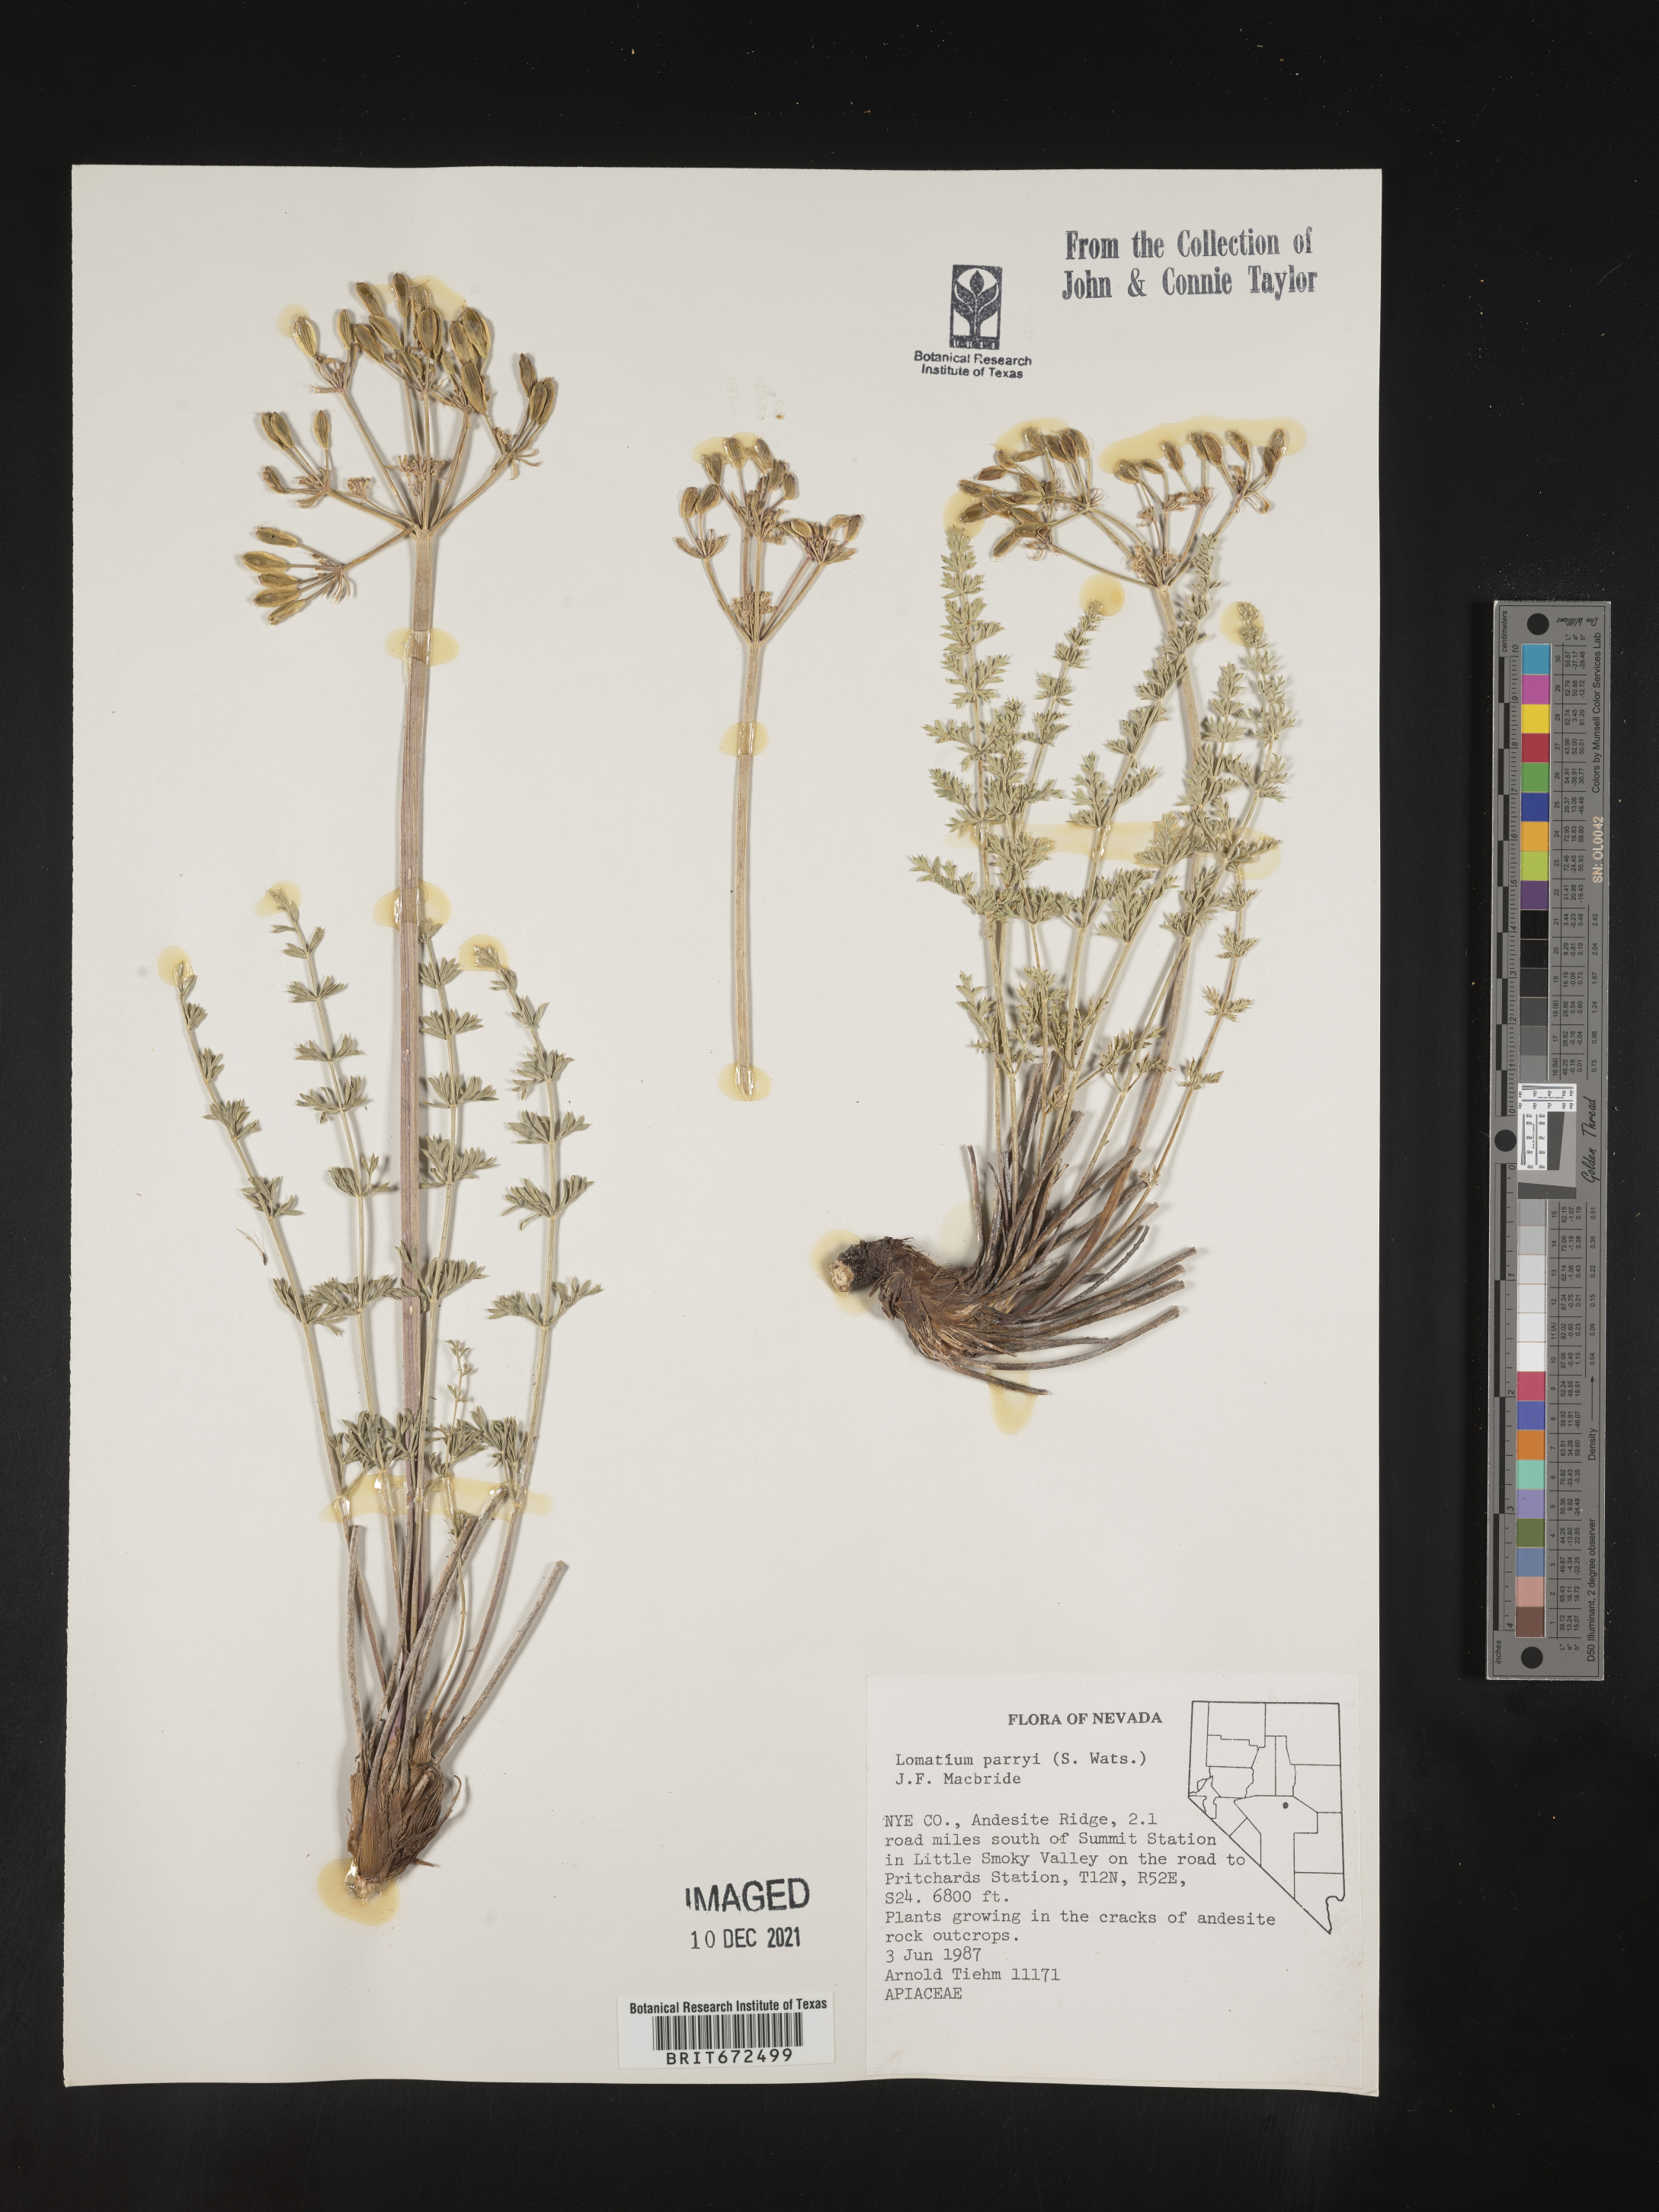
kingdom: Plantae
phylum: Tracheophyta
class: Magnoliopsida
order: Apiales
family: Apiaceae
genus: Lomatium
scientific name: Lomatium parryi
